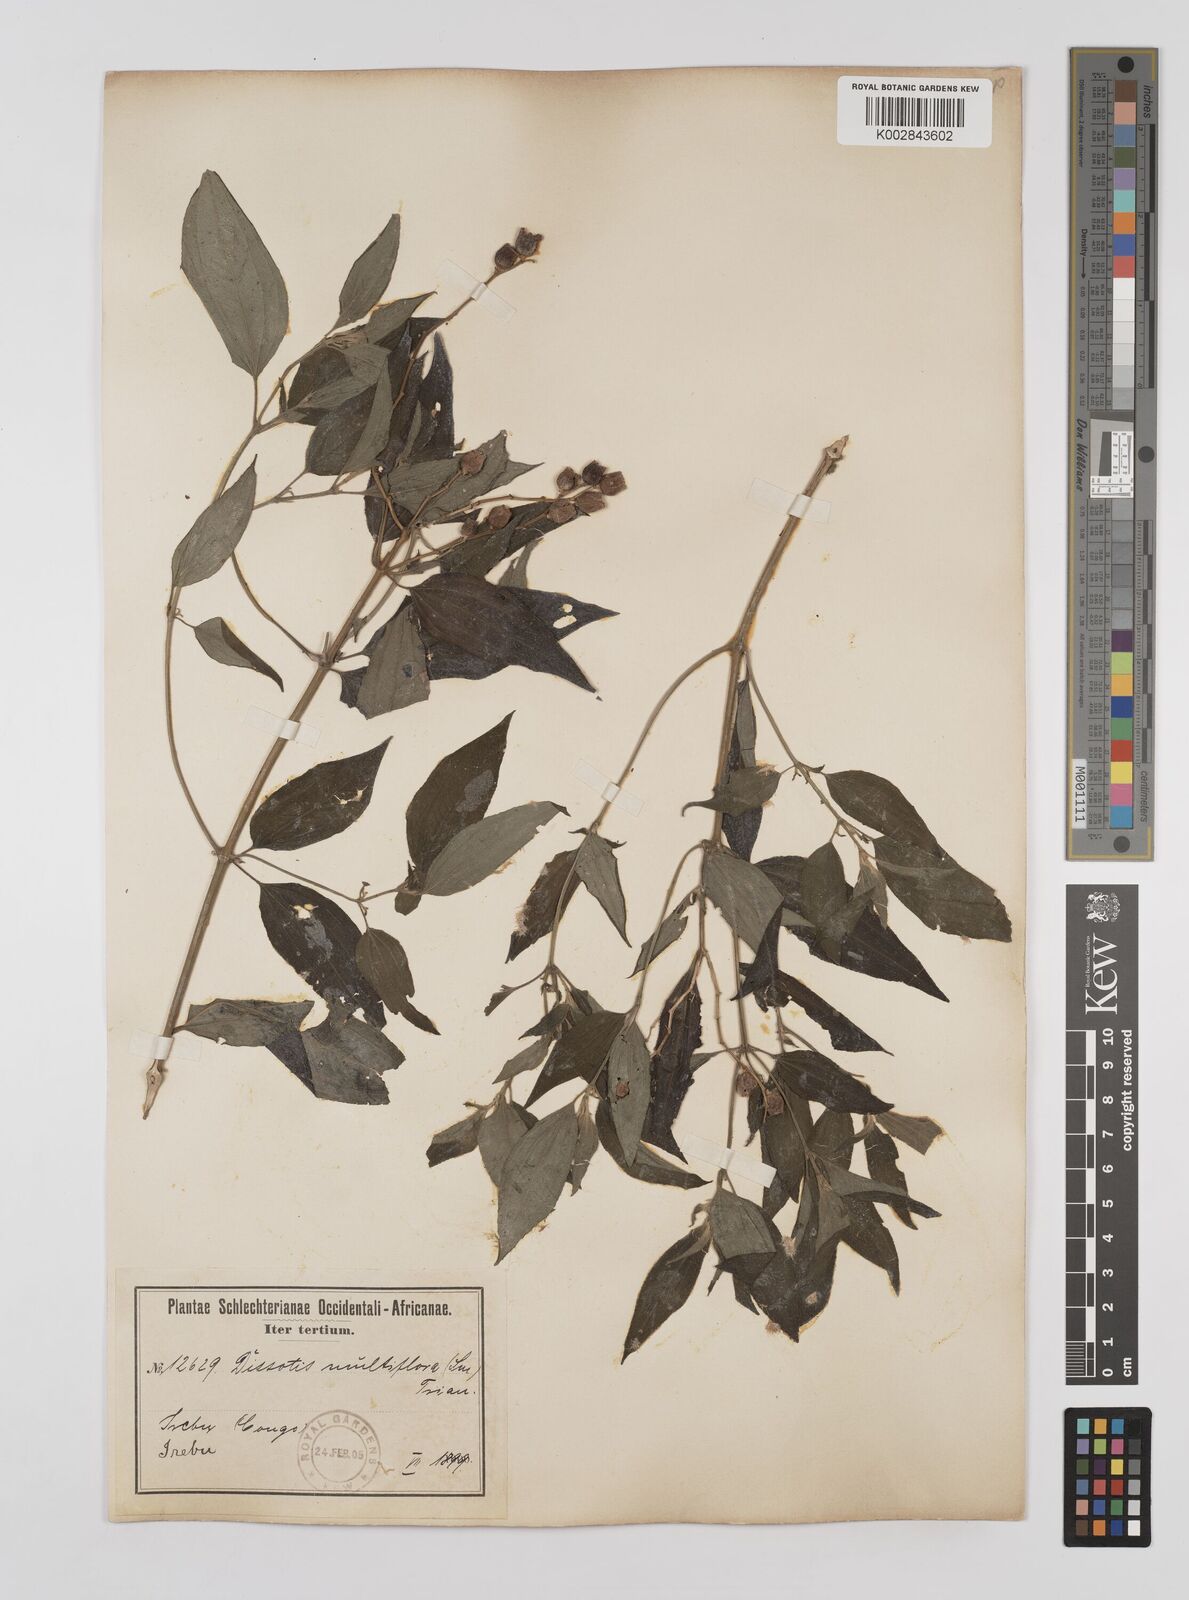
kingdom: Plantae
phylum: Tracheophyta
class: Magnoliopsida
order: Myrtales
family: Melastomataceae
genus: Dupineta
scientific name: Dupineta hensii
